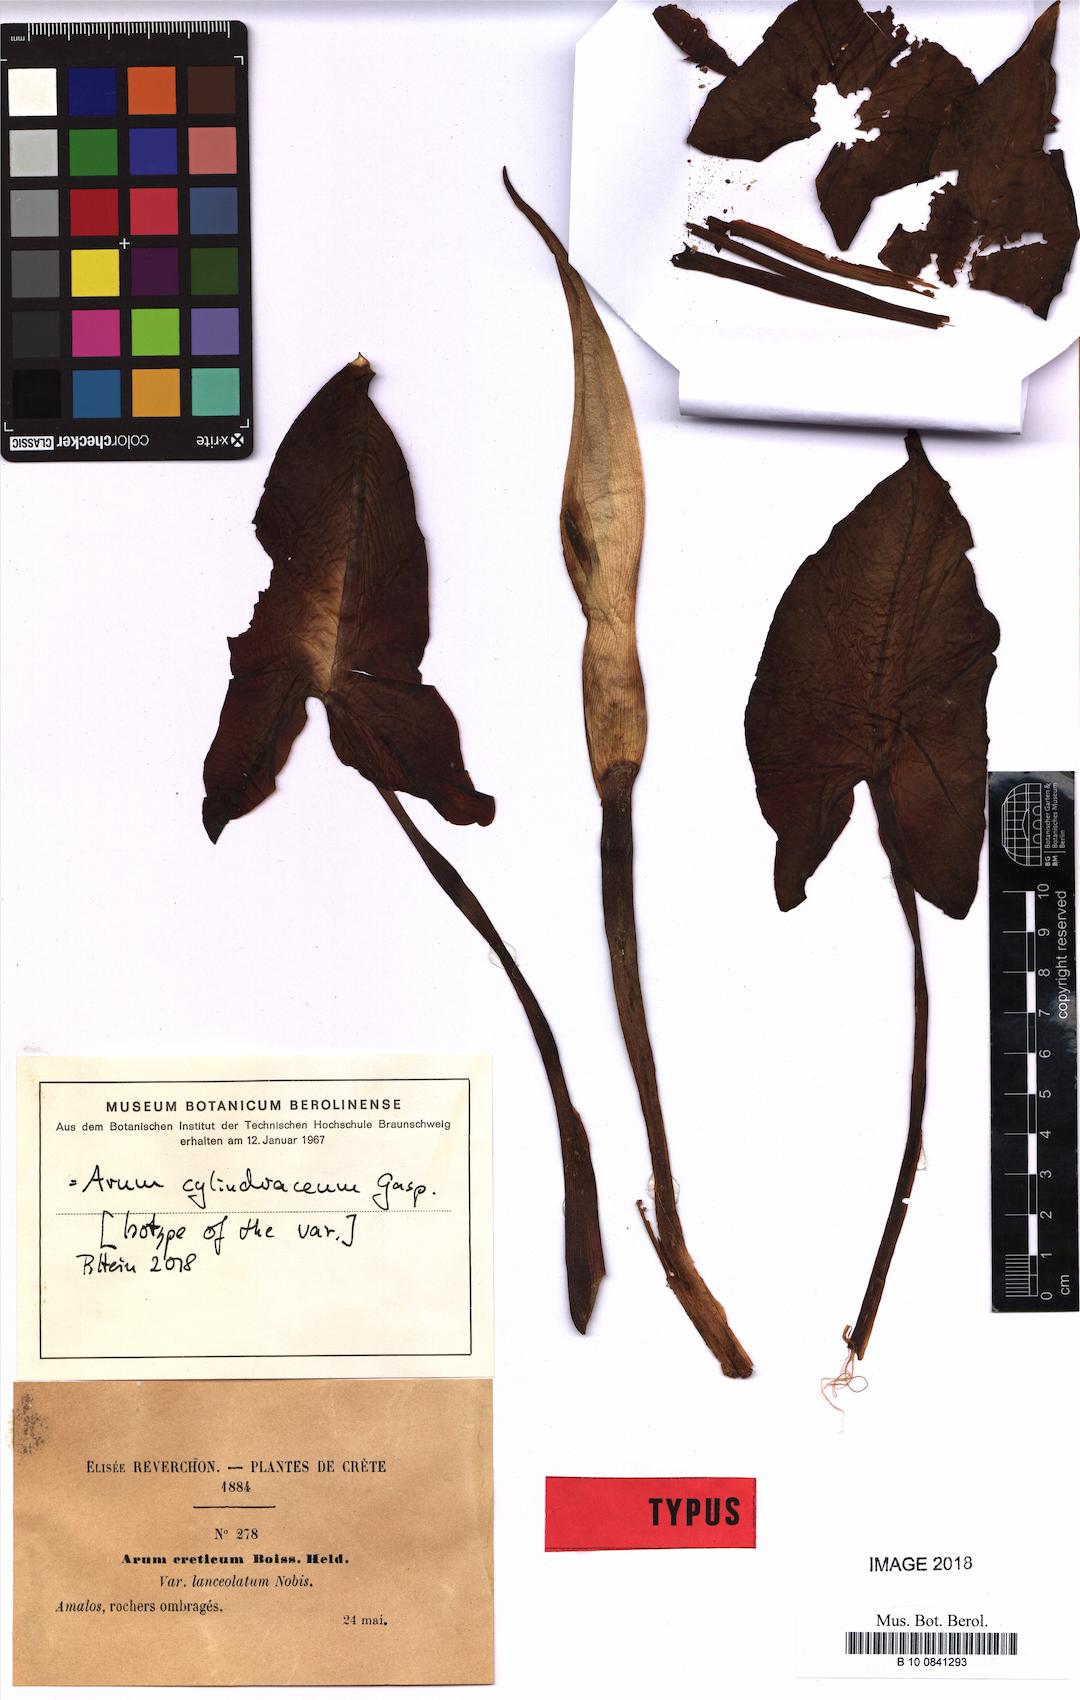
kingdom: Plantae
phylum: Tracheophyta
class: Liliopsida
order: Alismatales
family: Araceae
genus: Arum
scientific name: Arum cylindraceum
